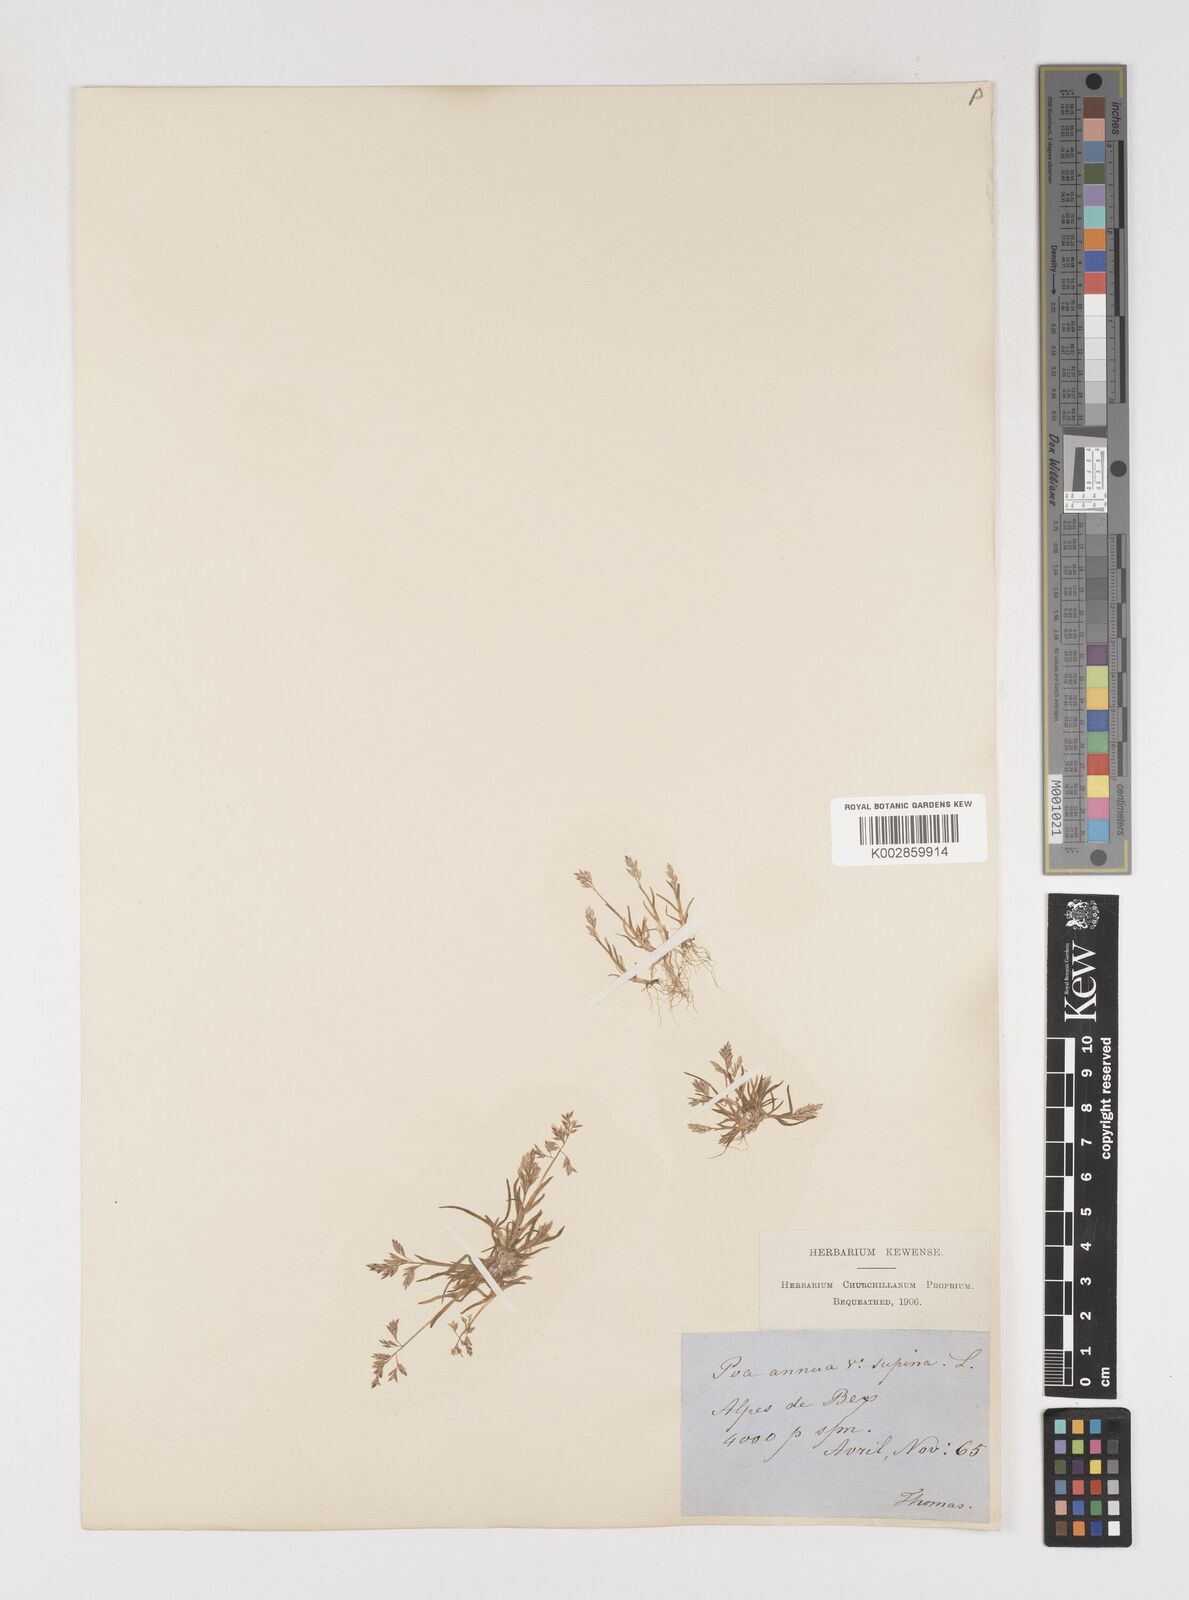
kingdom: Plantae
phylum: Tracheophyta
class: Liliopsida
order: Poales
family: Poaceae
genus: Poa
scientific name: Poa annua
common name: Annual bluegrass
